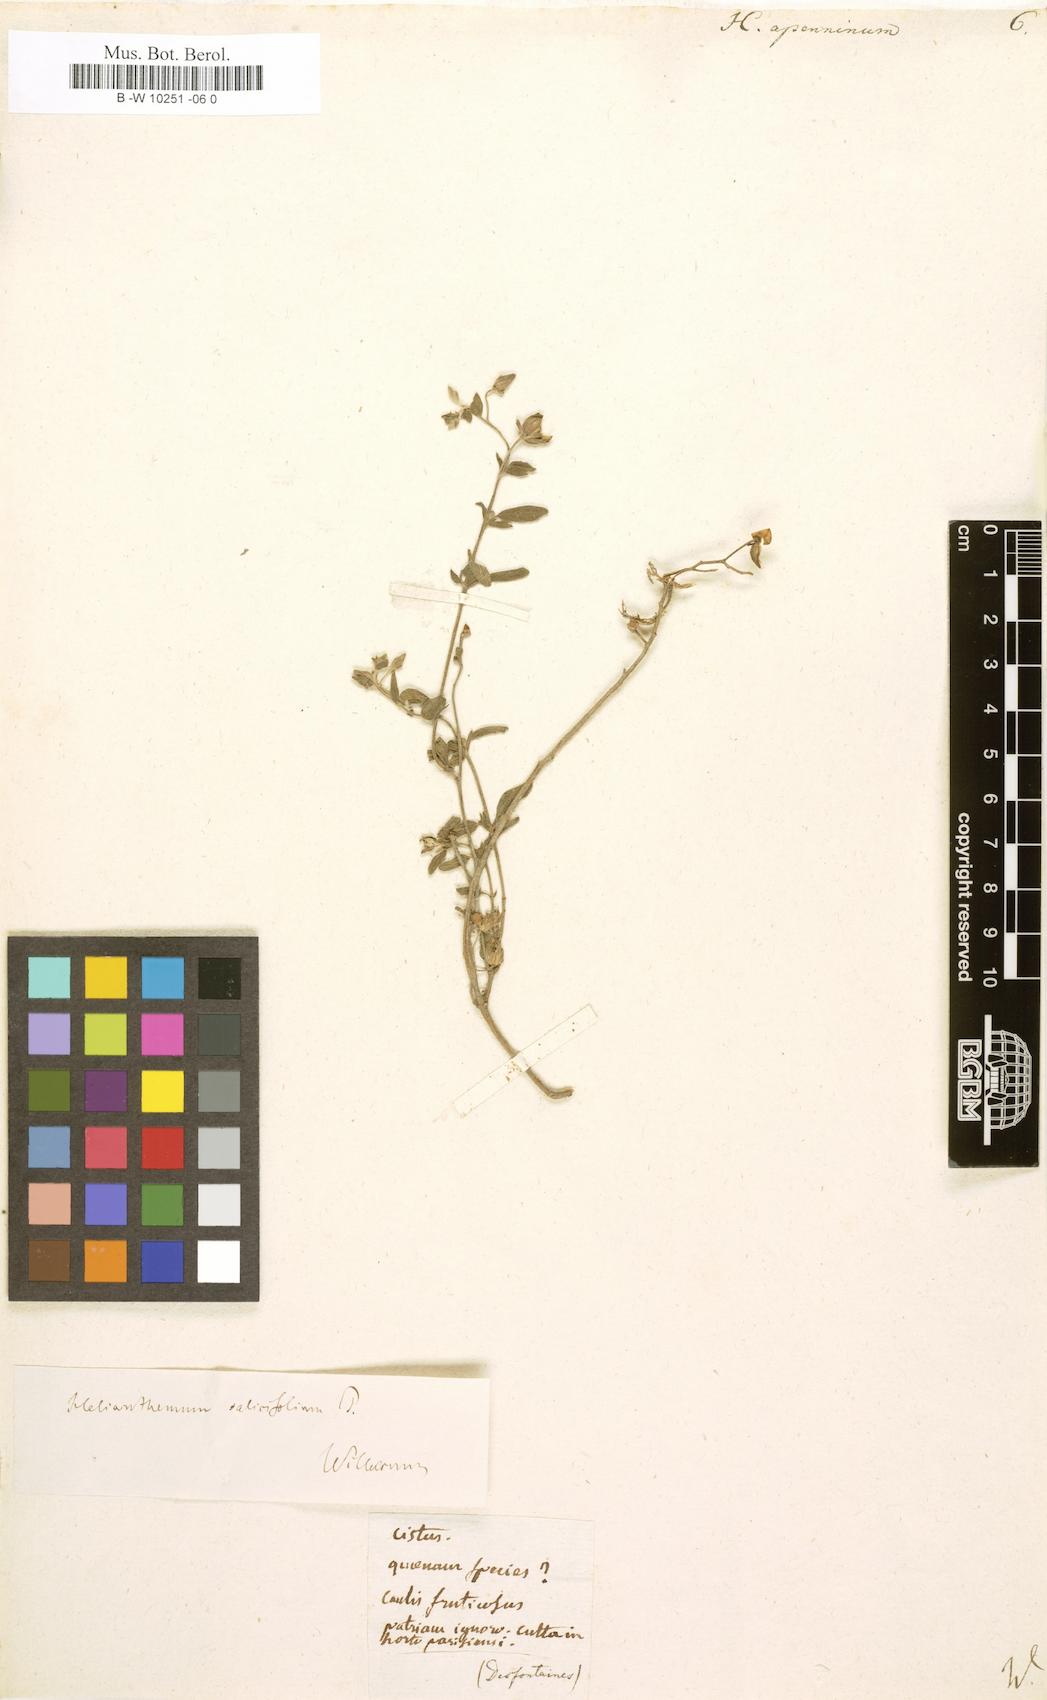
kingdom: Plantae
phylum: Tracheophyta
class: Magnoliopsida
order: Malvales
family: Cistaceae
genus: Helianthemum
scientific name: Helianthemum apenninum
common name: White rock-rose
